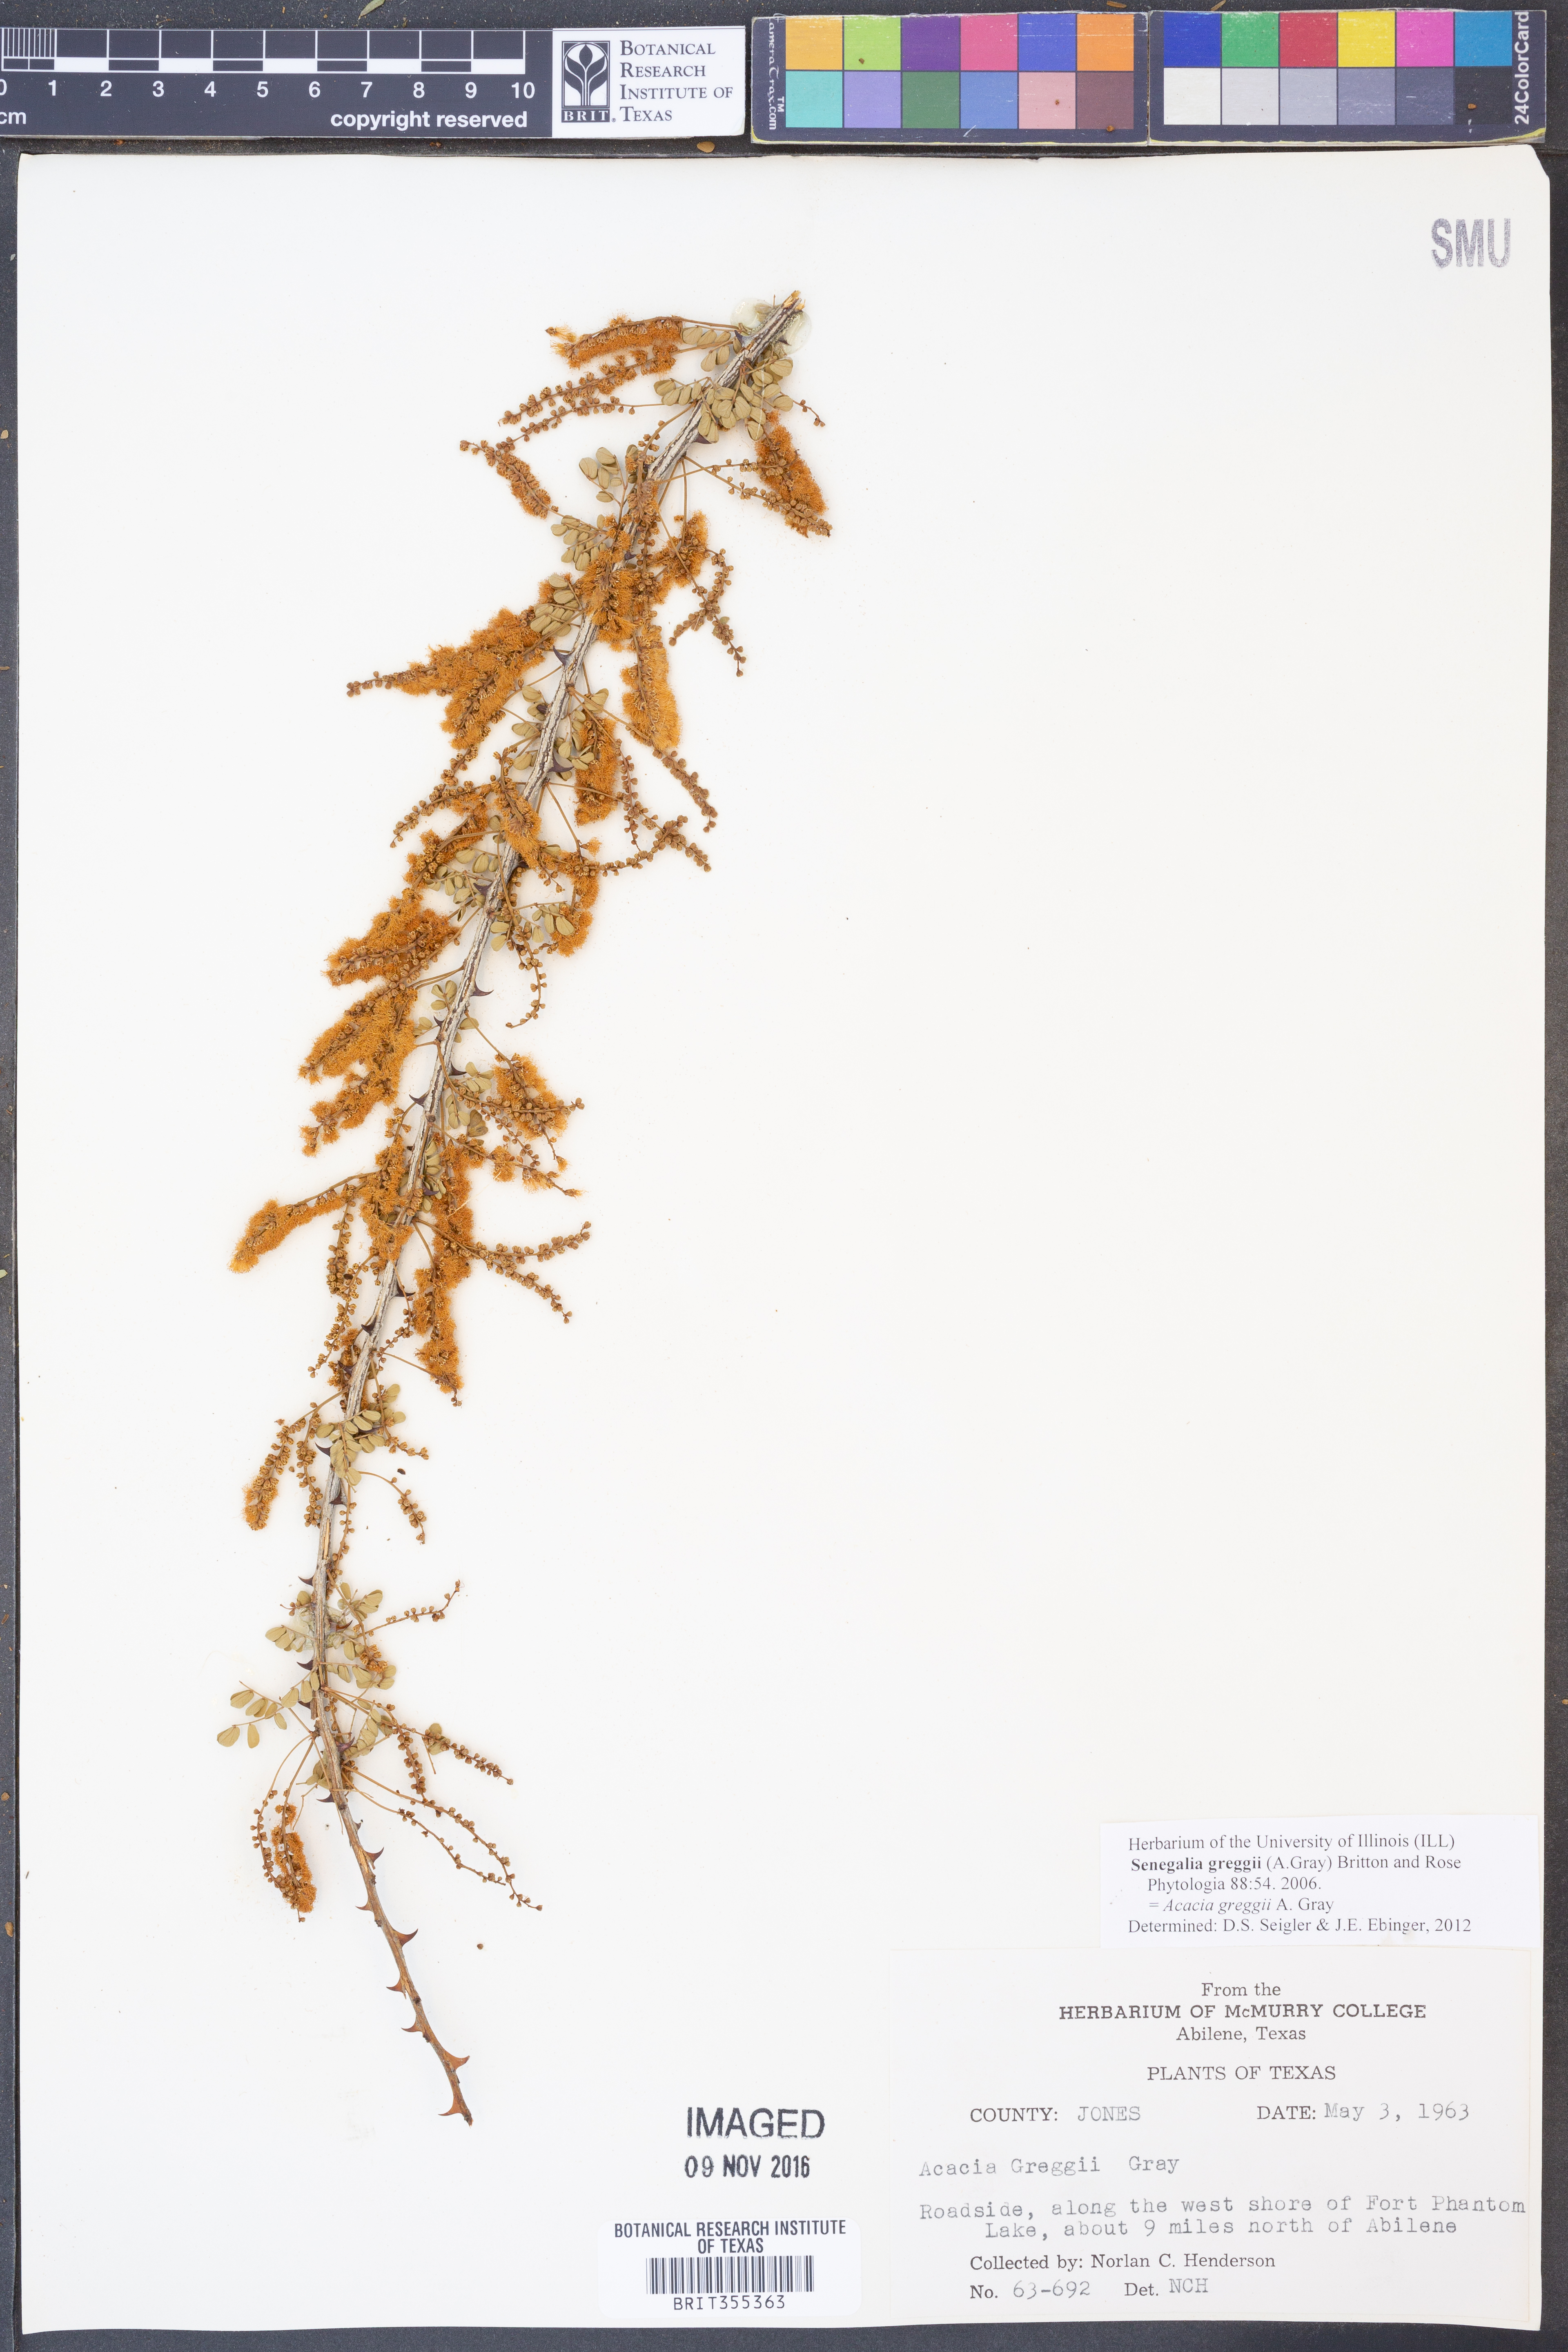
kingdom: Plantae
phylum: Tracheophyta
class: Magnoliopsida
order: Fabales
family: Fabaceae
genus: Senegalia
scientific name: Senegalia greggii
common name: Texas-mimosa
